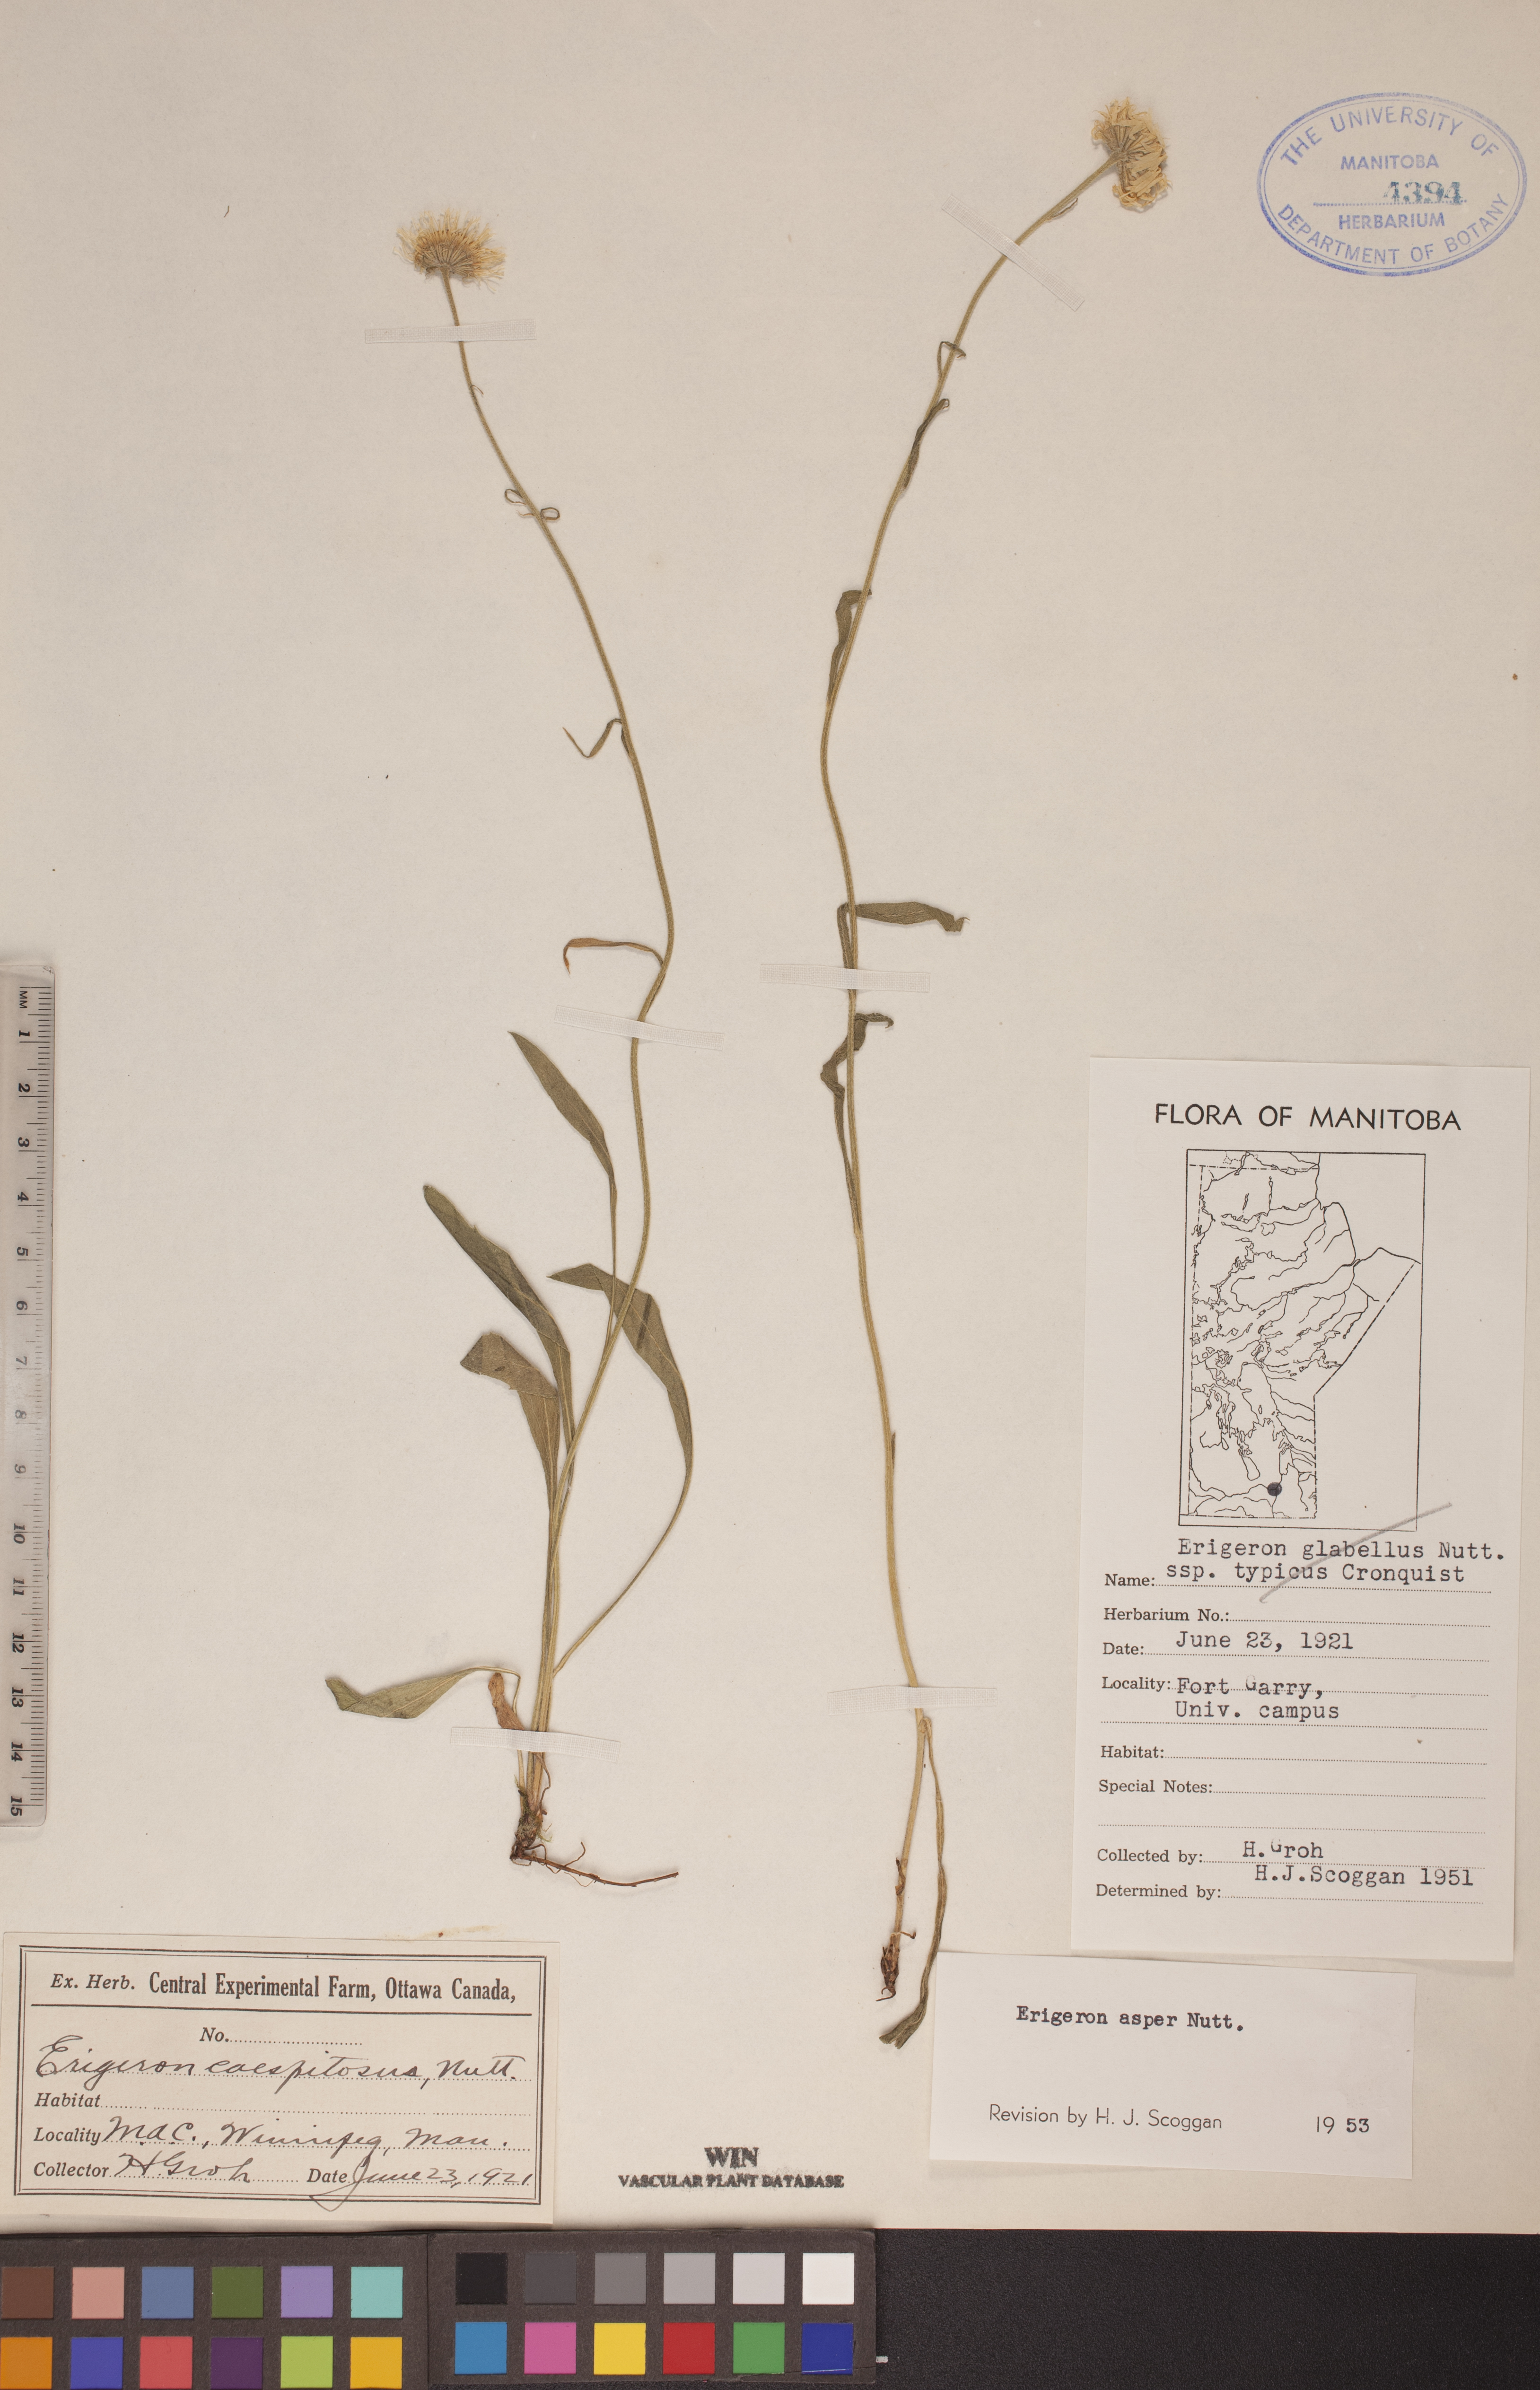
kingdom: Plantae
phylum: Tracheophyta
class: Magnoliopsida
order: Asterales
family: Asteraceae
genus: Erigeron
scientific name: Erigeron glabellus
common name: Smooth fleabane
